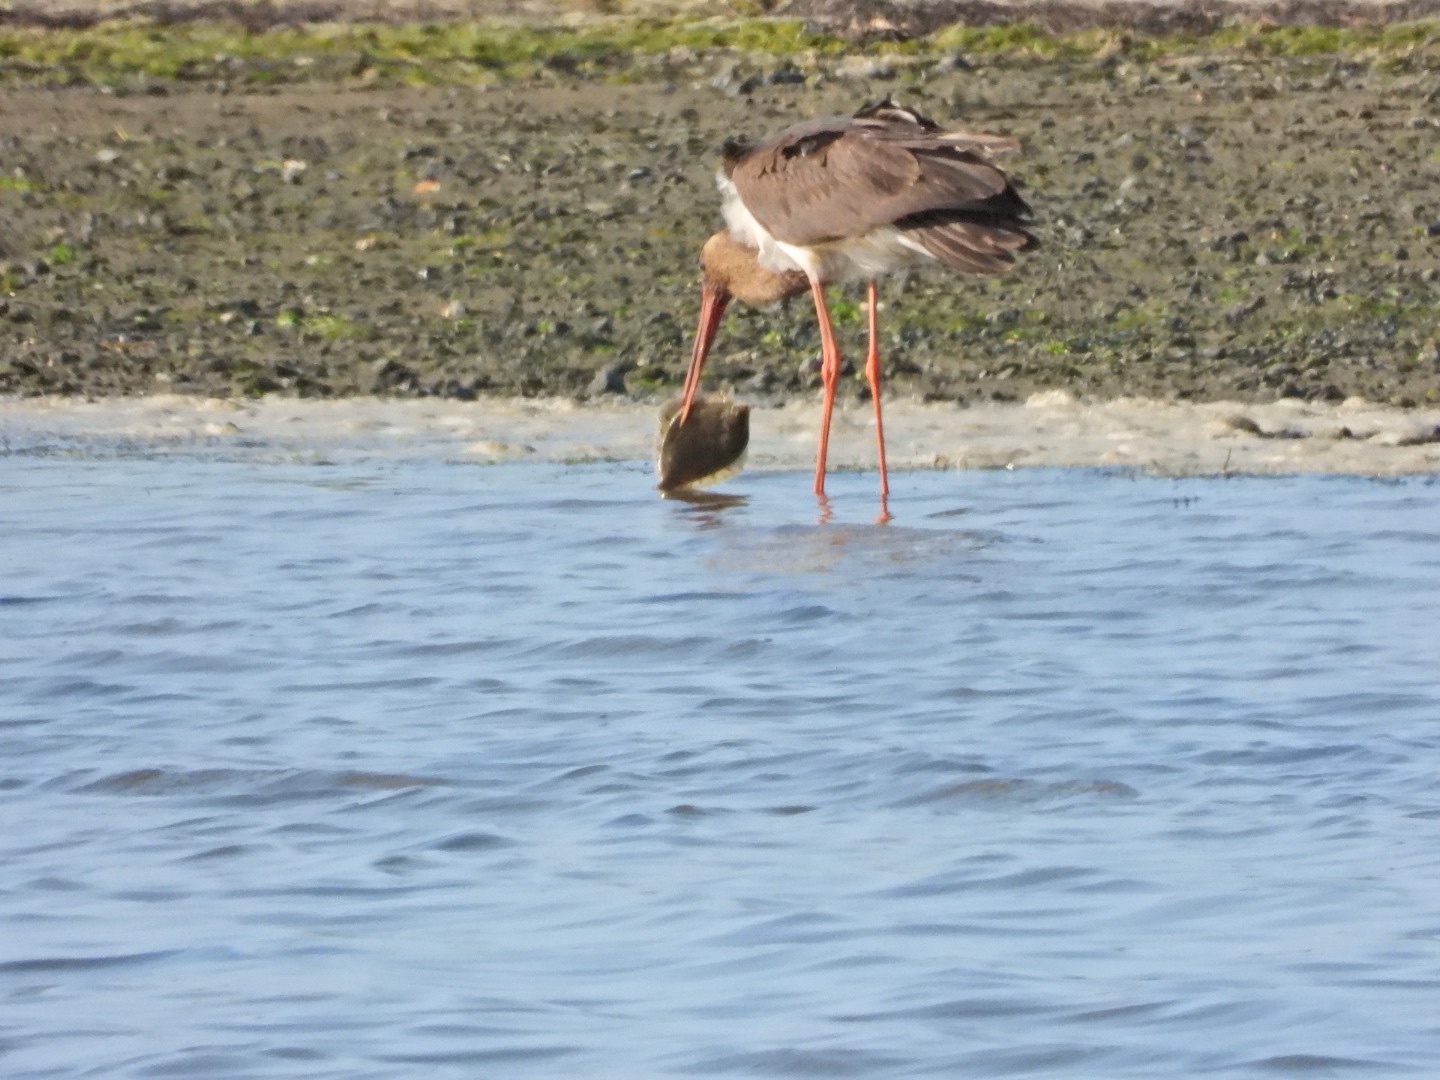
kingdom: Animalia
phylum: Chordata
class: Aves
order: Ciconiiformes
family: Ciconiidae
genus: Ciconia
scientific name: Ciconia nigra
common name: Sort stork
